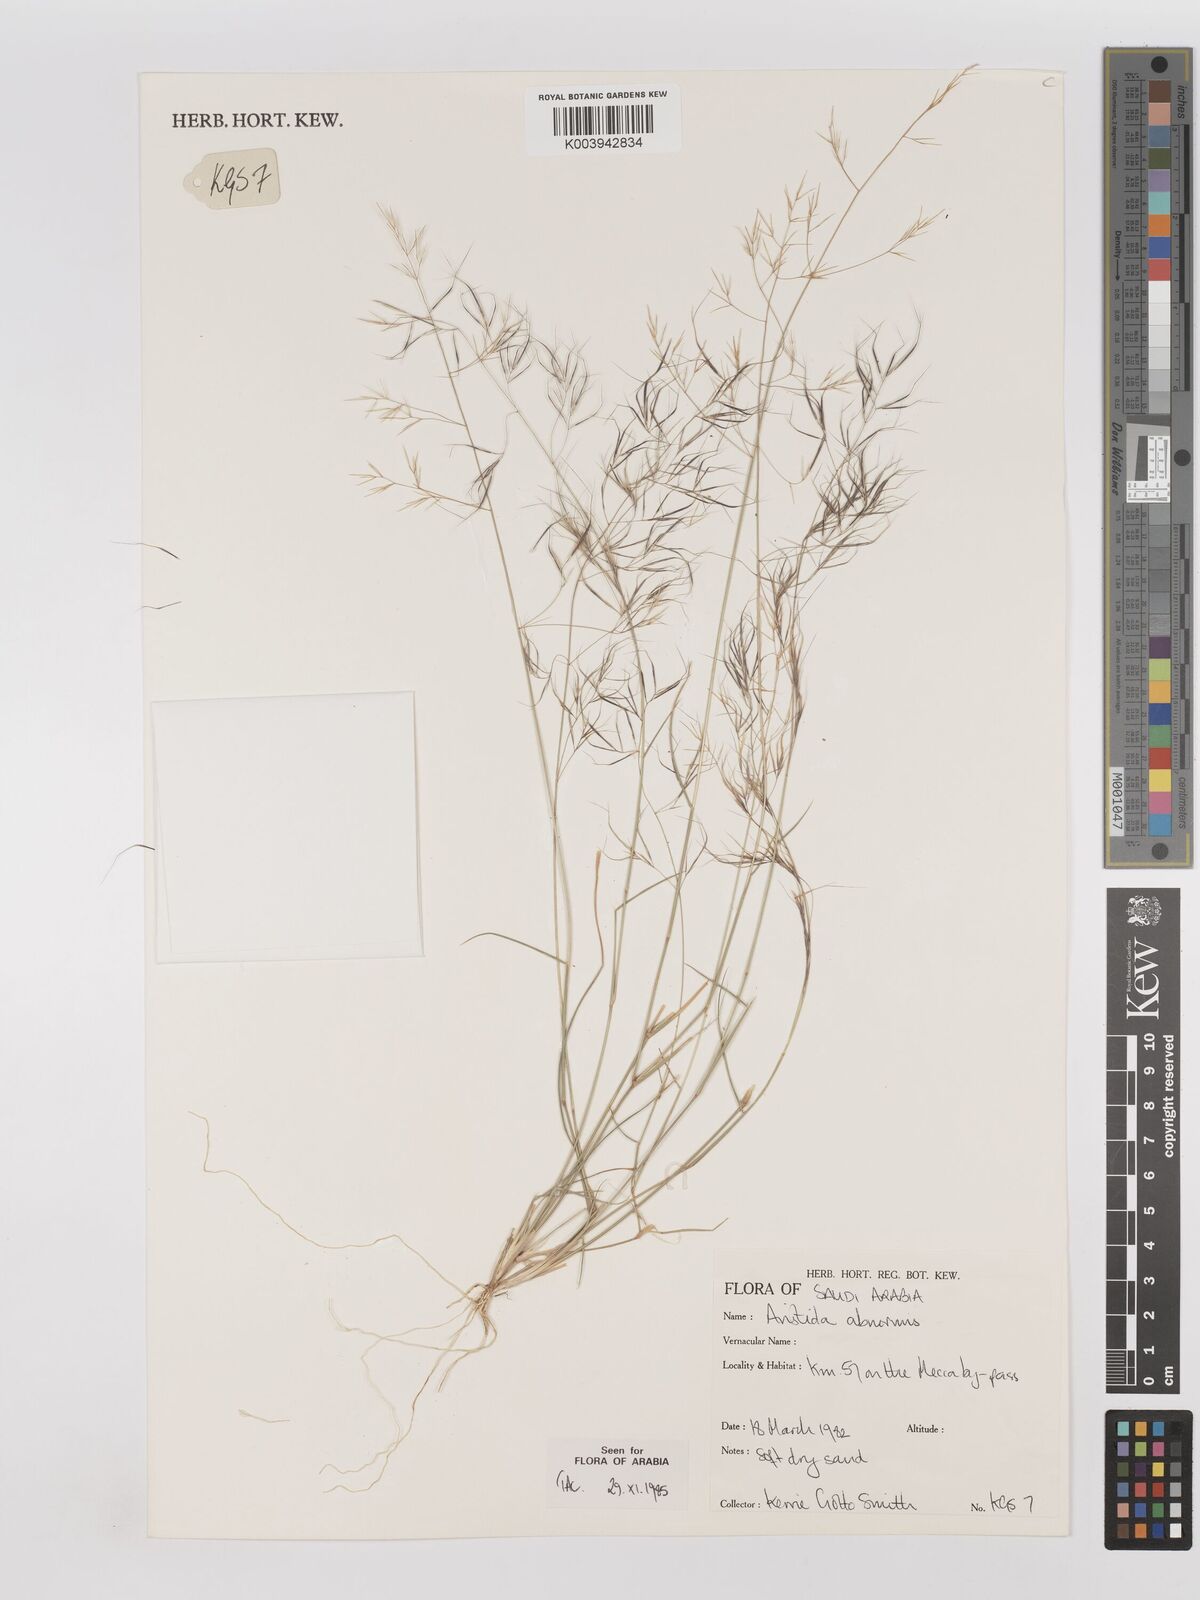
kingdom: Plantae
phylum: Tracheophyta
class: Liliopsida
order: Poales
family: Poaceae
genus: Aristida
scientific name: Aristida abnormis
